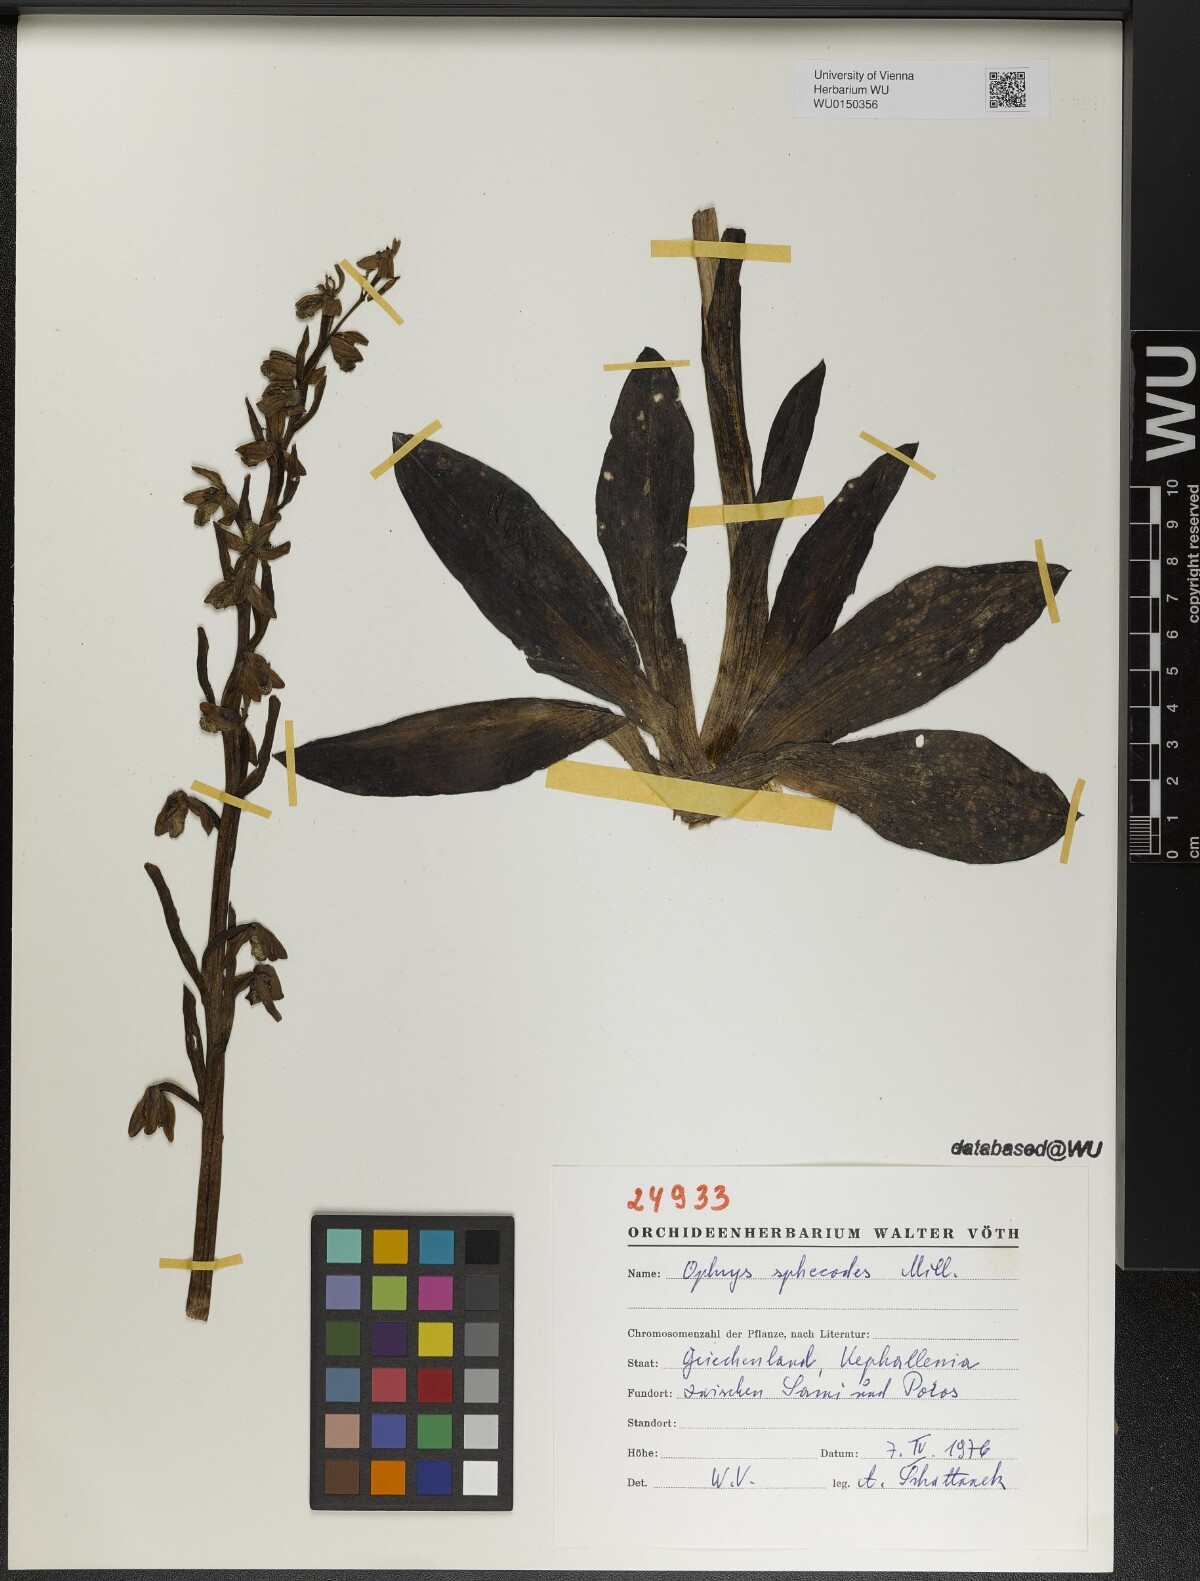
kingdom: Plantae
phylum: Tracheophyta
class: Liliopsida
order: Asparagales
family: Orchidaceae
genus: Ophrys
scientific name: Ophrys sphegodes
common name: Early spider-orchid
